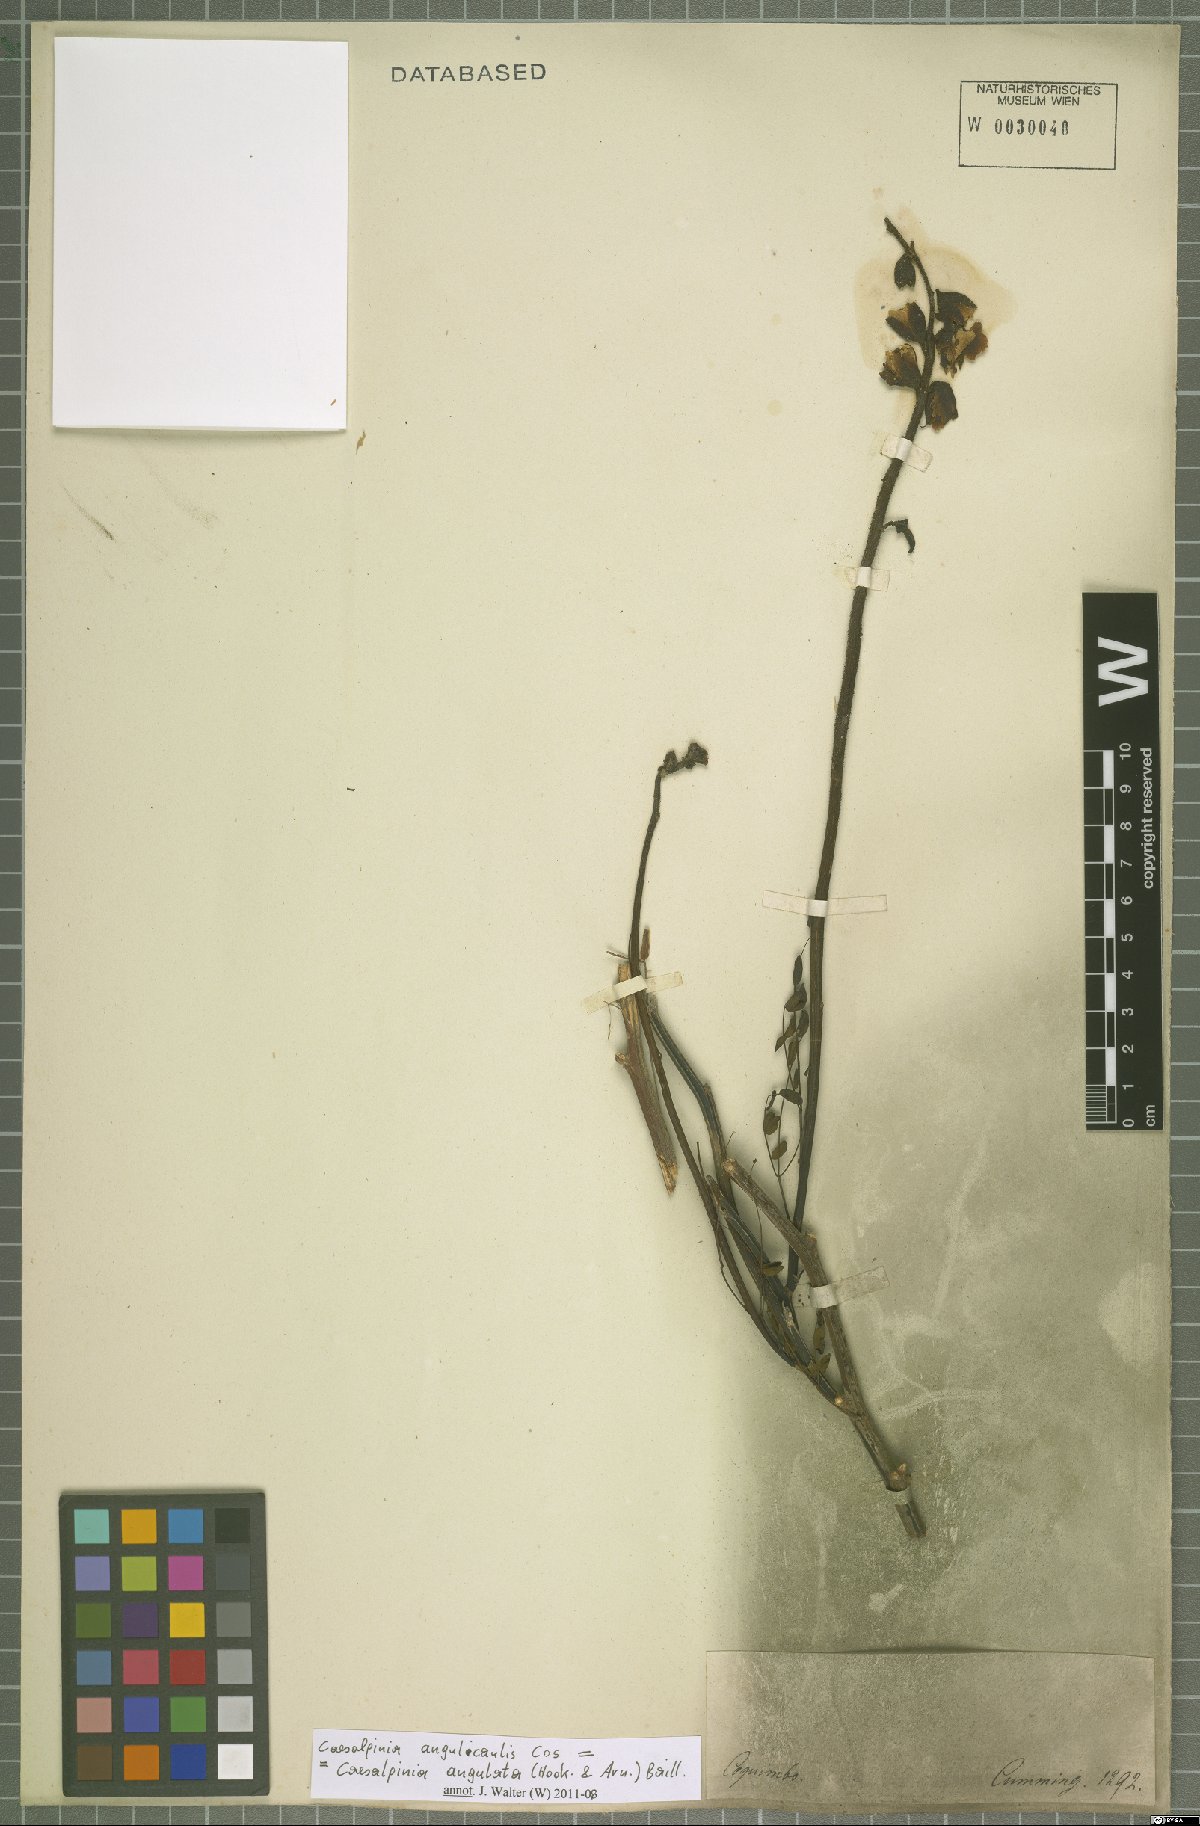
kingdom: Plantae
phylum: Tracheophyta
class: Magnoliopsida
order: Fabales
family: Fabaceae
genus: Erythrostemon
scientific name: Erythrostemon angulatus
